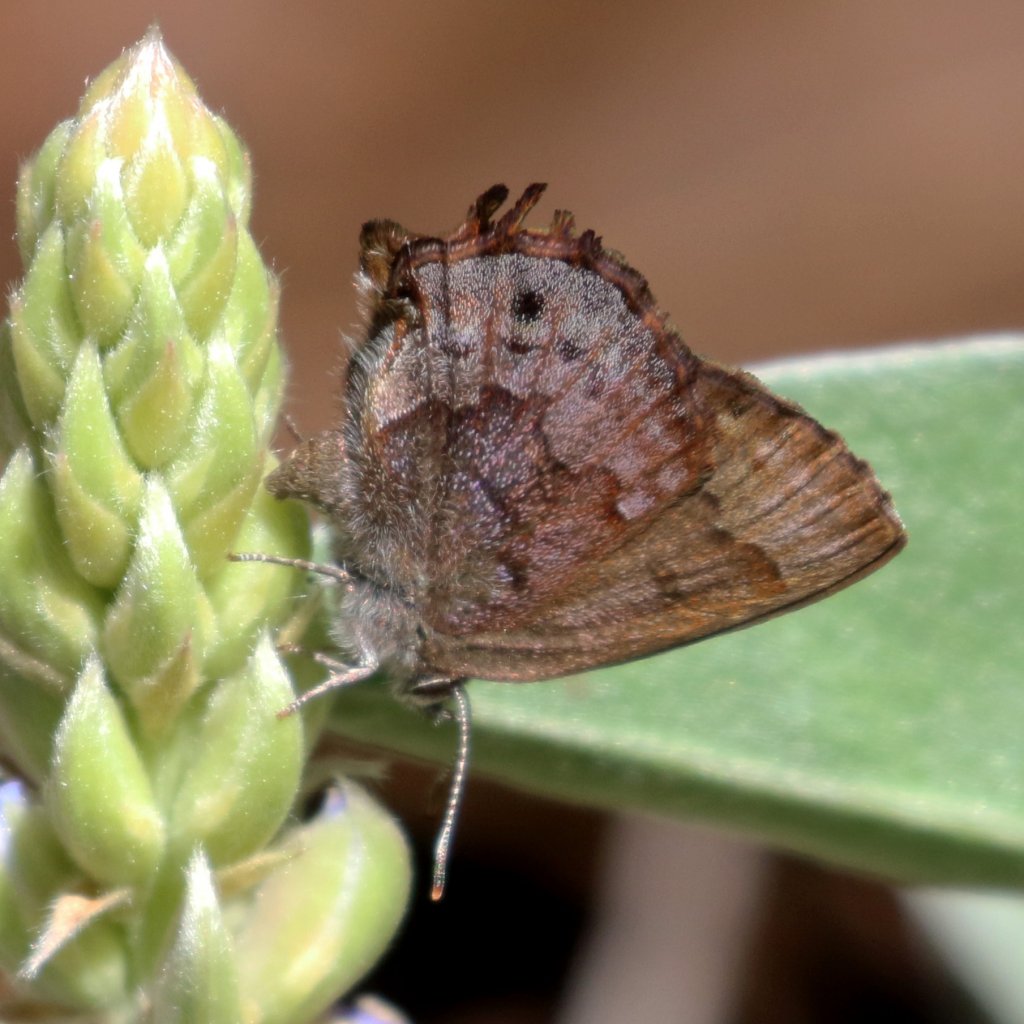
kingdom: Animalia
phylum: Arthropoda
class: Insecta
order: Lepidoptera
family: Lycaenidae
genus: Thecla
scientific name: Thecla irus
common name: Frosted Elfin
